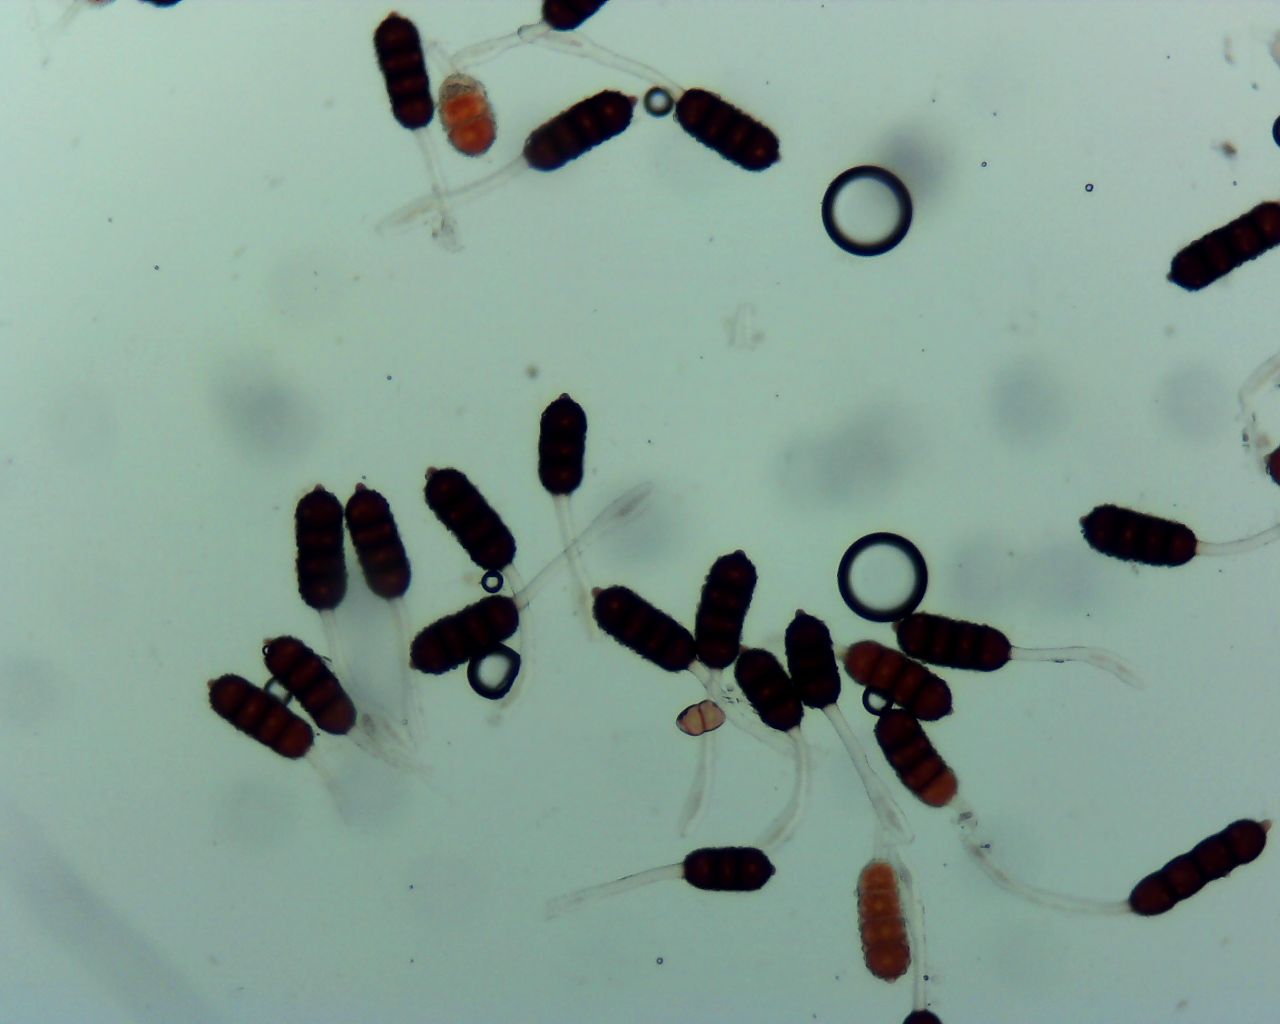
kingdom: Fungi
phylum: Basidiomycota
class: Pucciniomycetes
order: Pucciniales
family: Phragmidiaceae
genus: Phragmidium
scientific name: Phragmidium violaceum
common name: violet flercellerust
